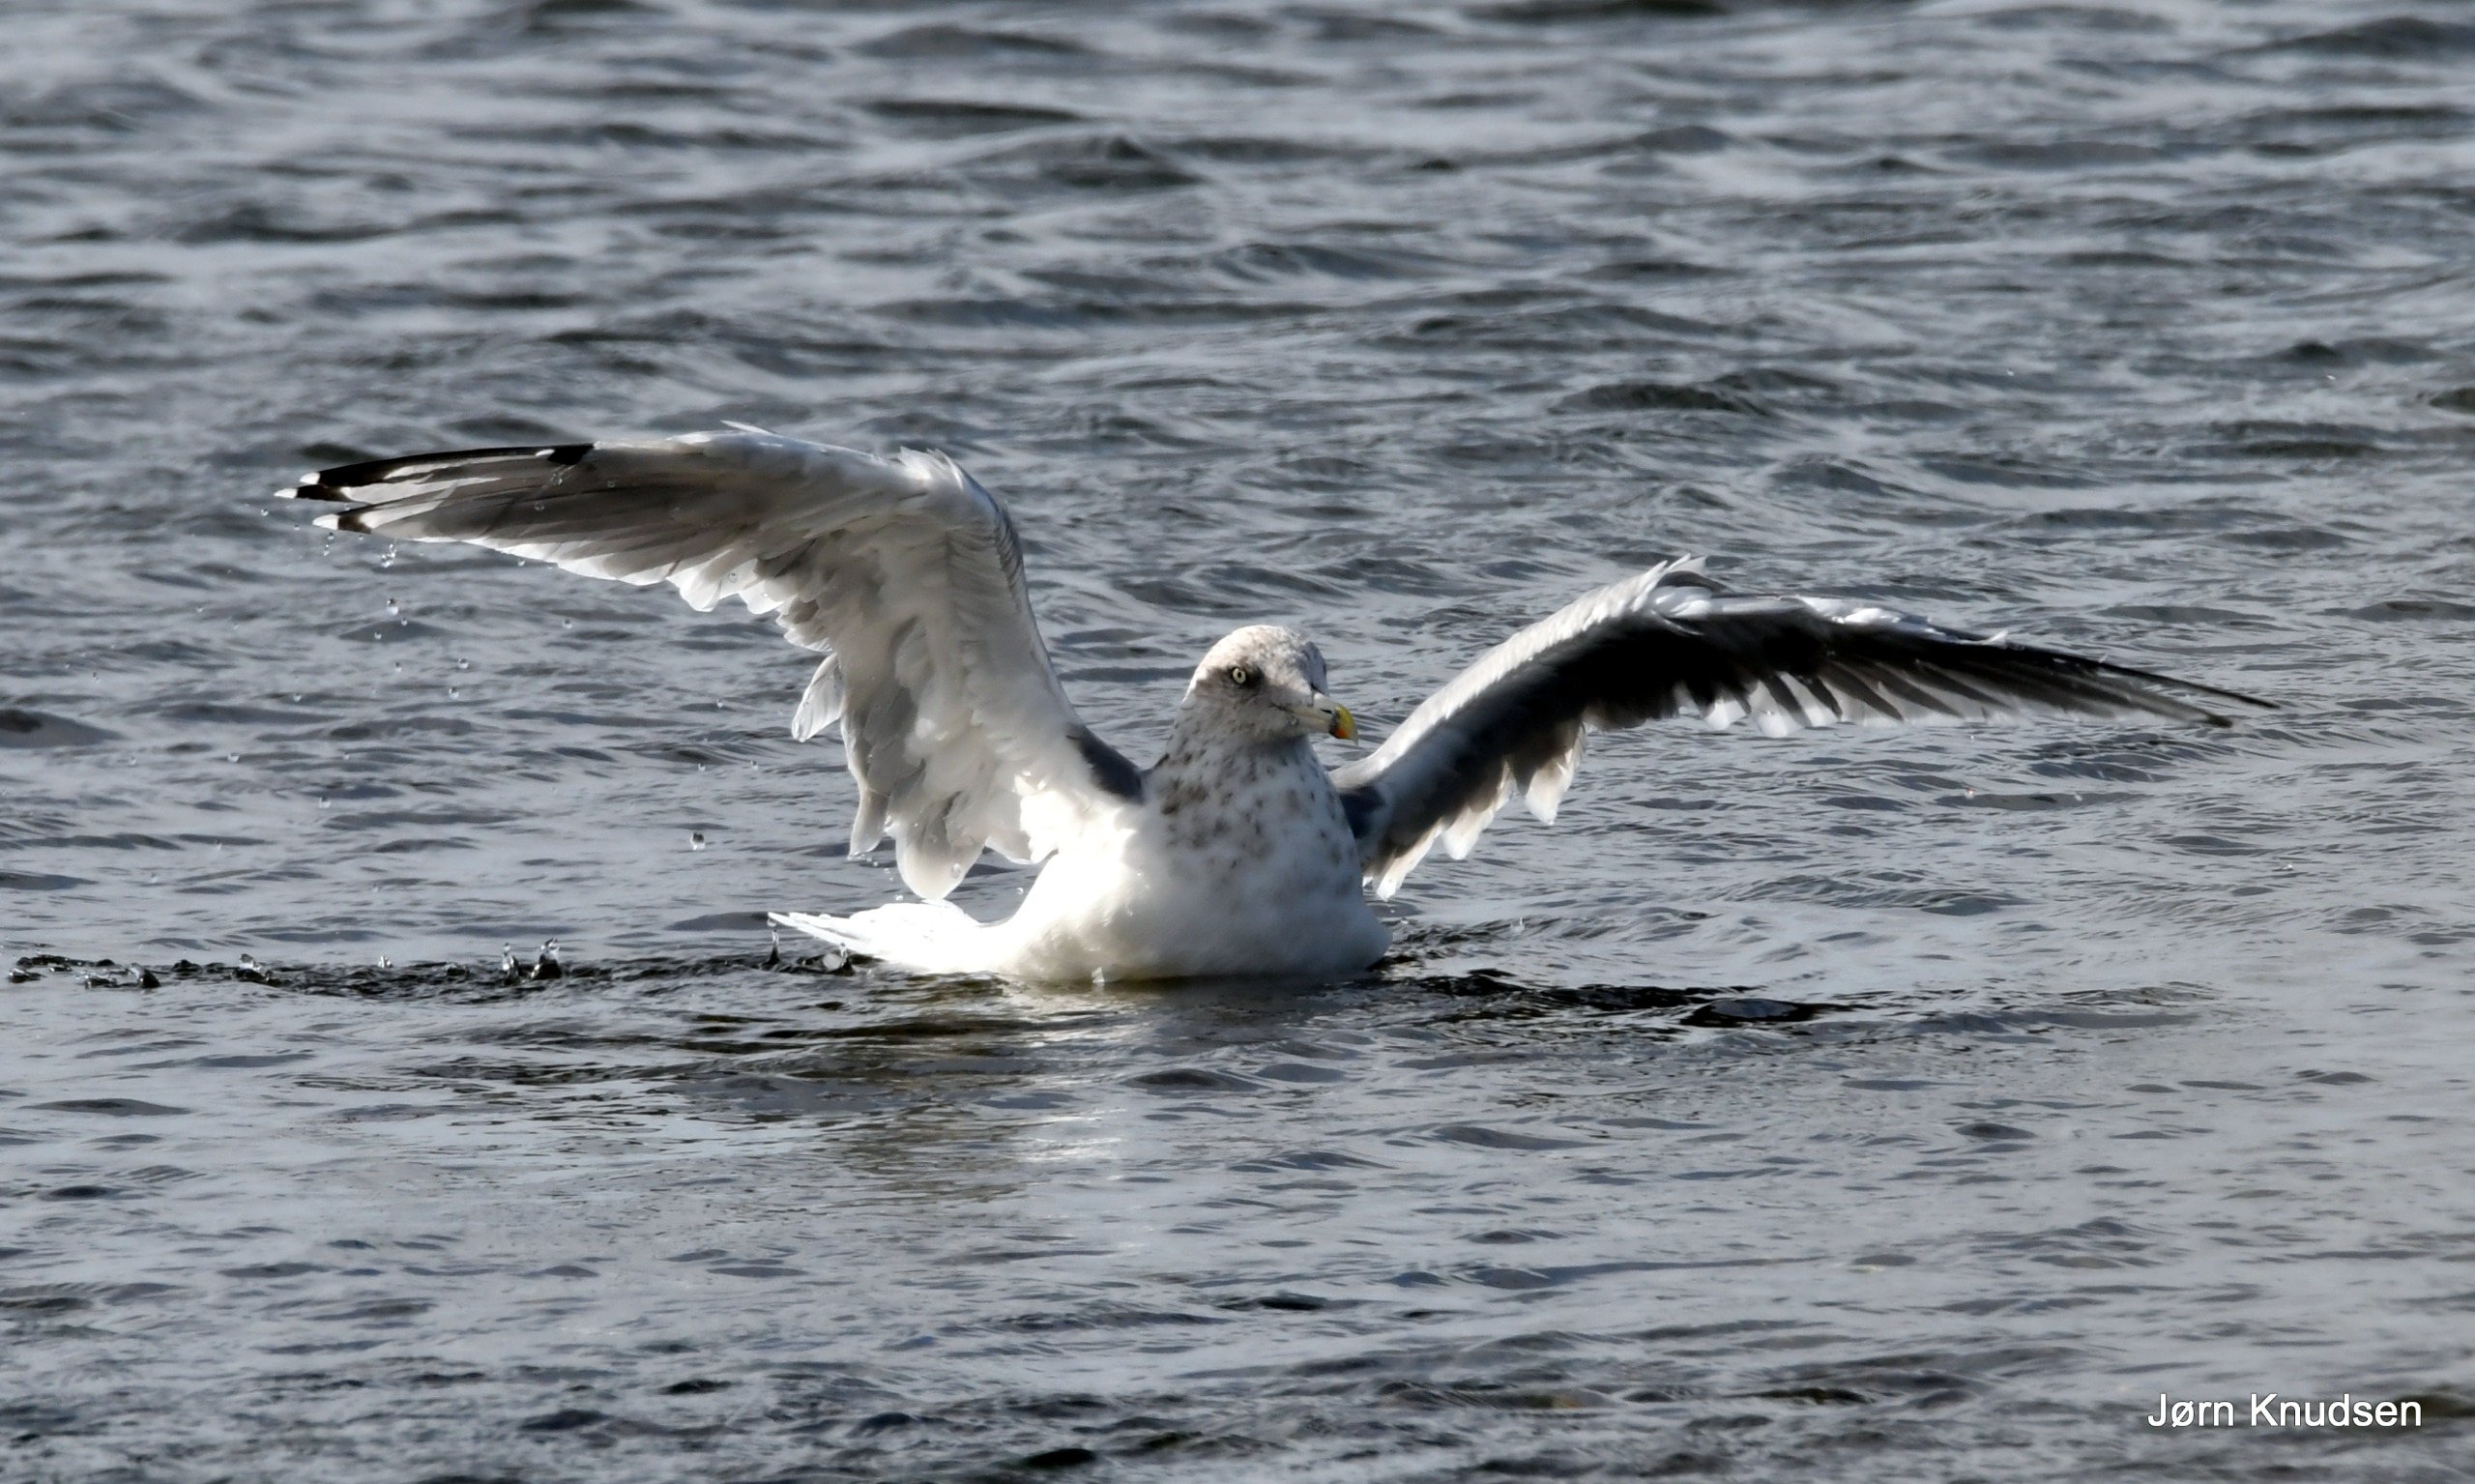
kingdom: Animalia
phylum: Chordata
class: Aves
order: Charadriiformes
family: Laridae
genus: Larus
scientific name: Larus argentatus
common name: Sølvmåge
